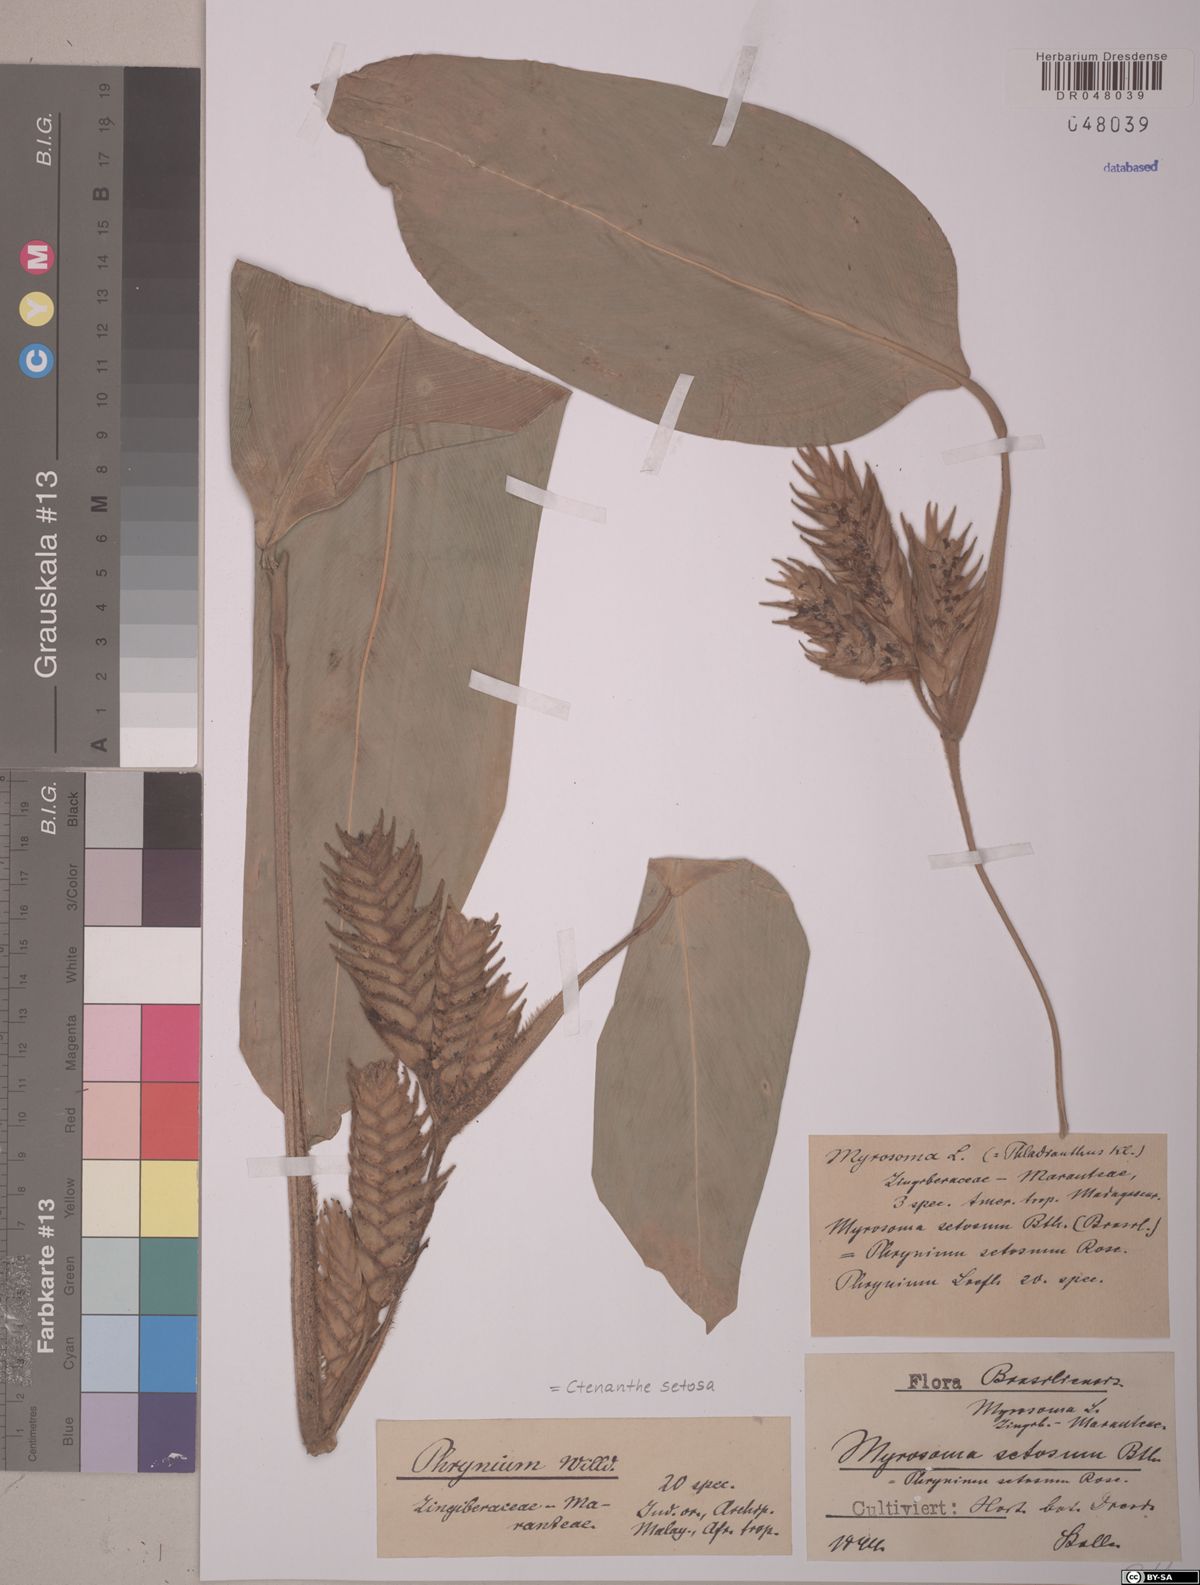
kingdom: Plantae
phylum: Tracheophyta
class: Liliopsida
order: Zingiberales
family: Marantaceae
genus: Ctenanthe
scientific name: Ctenanthe setosa
